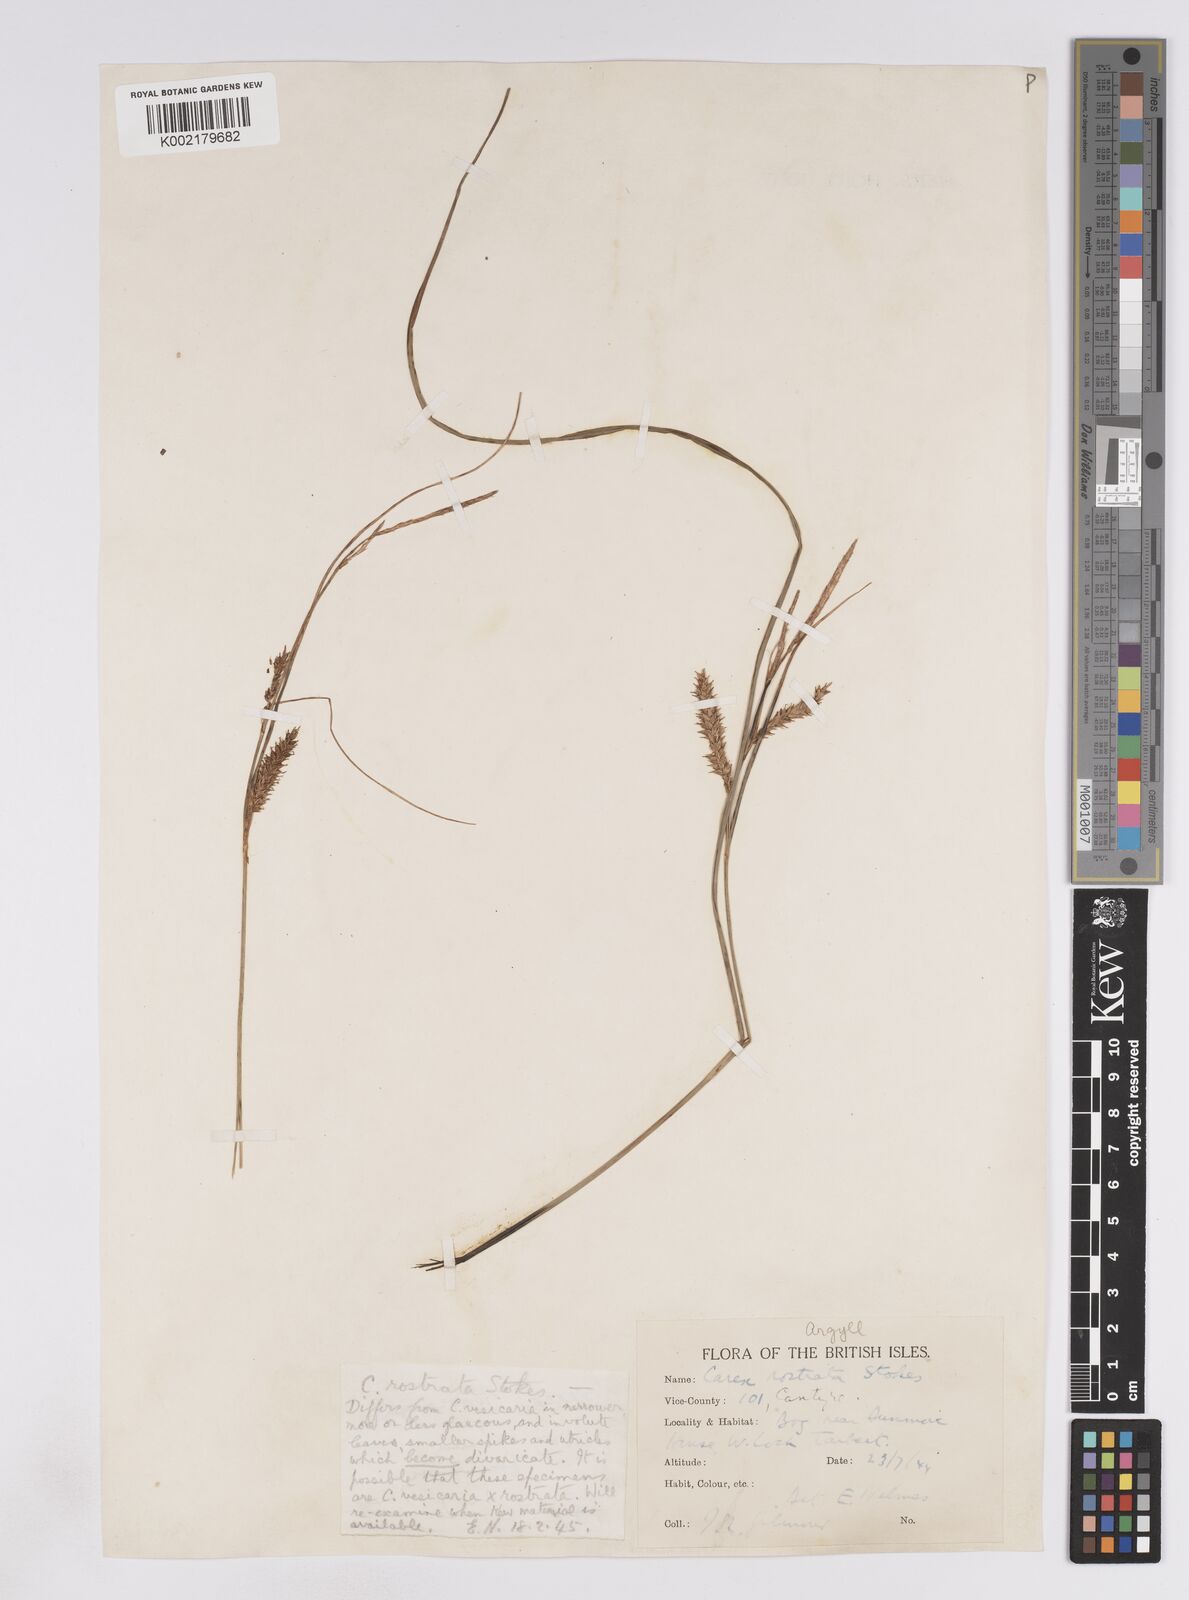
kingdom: Plantae
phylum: Tracheophyta
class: Liliopsida
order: Poales
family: Cyperaceae
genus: Carex
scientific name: Carex rostrata
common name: Bottle sedge
